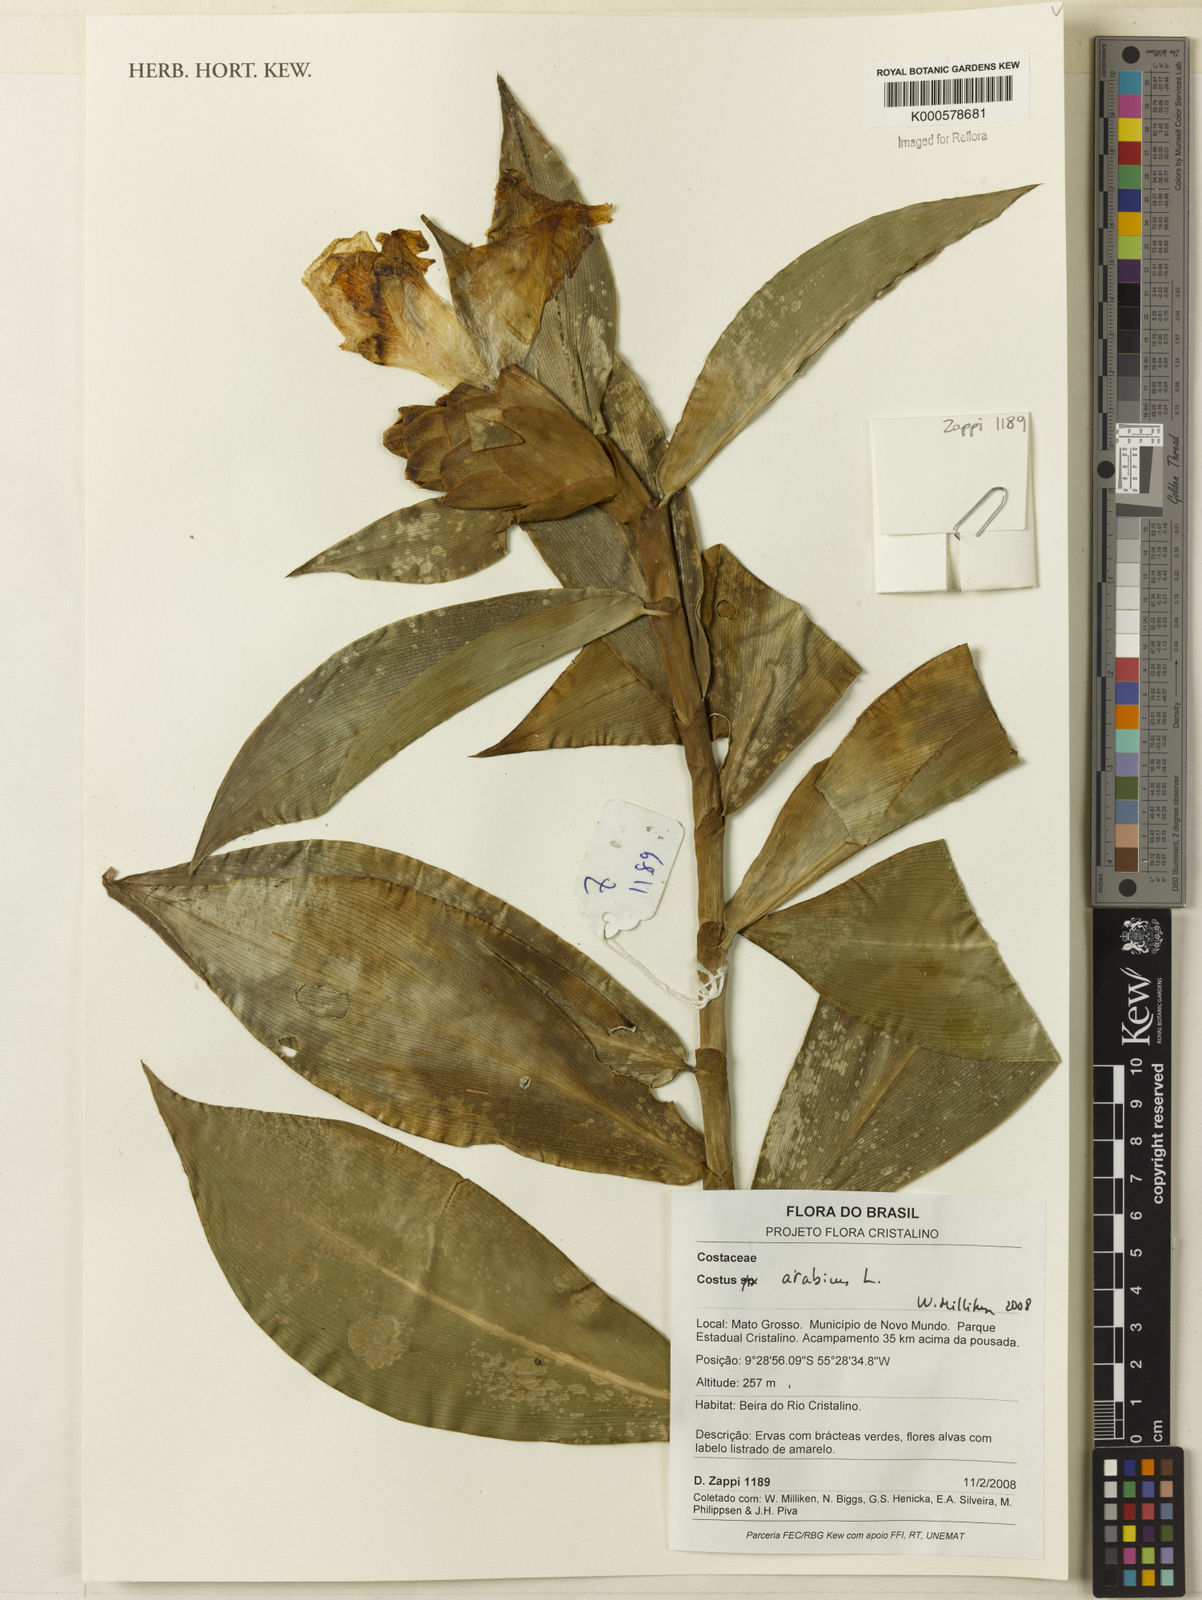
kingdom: Plantae
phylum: Tracheophyta
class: Liliopsida
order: Zingiberales
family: Costaceae
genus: Costus
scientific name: Costus arabicus
